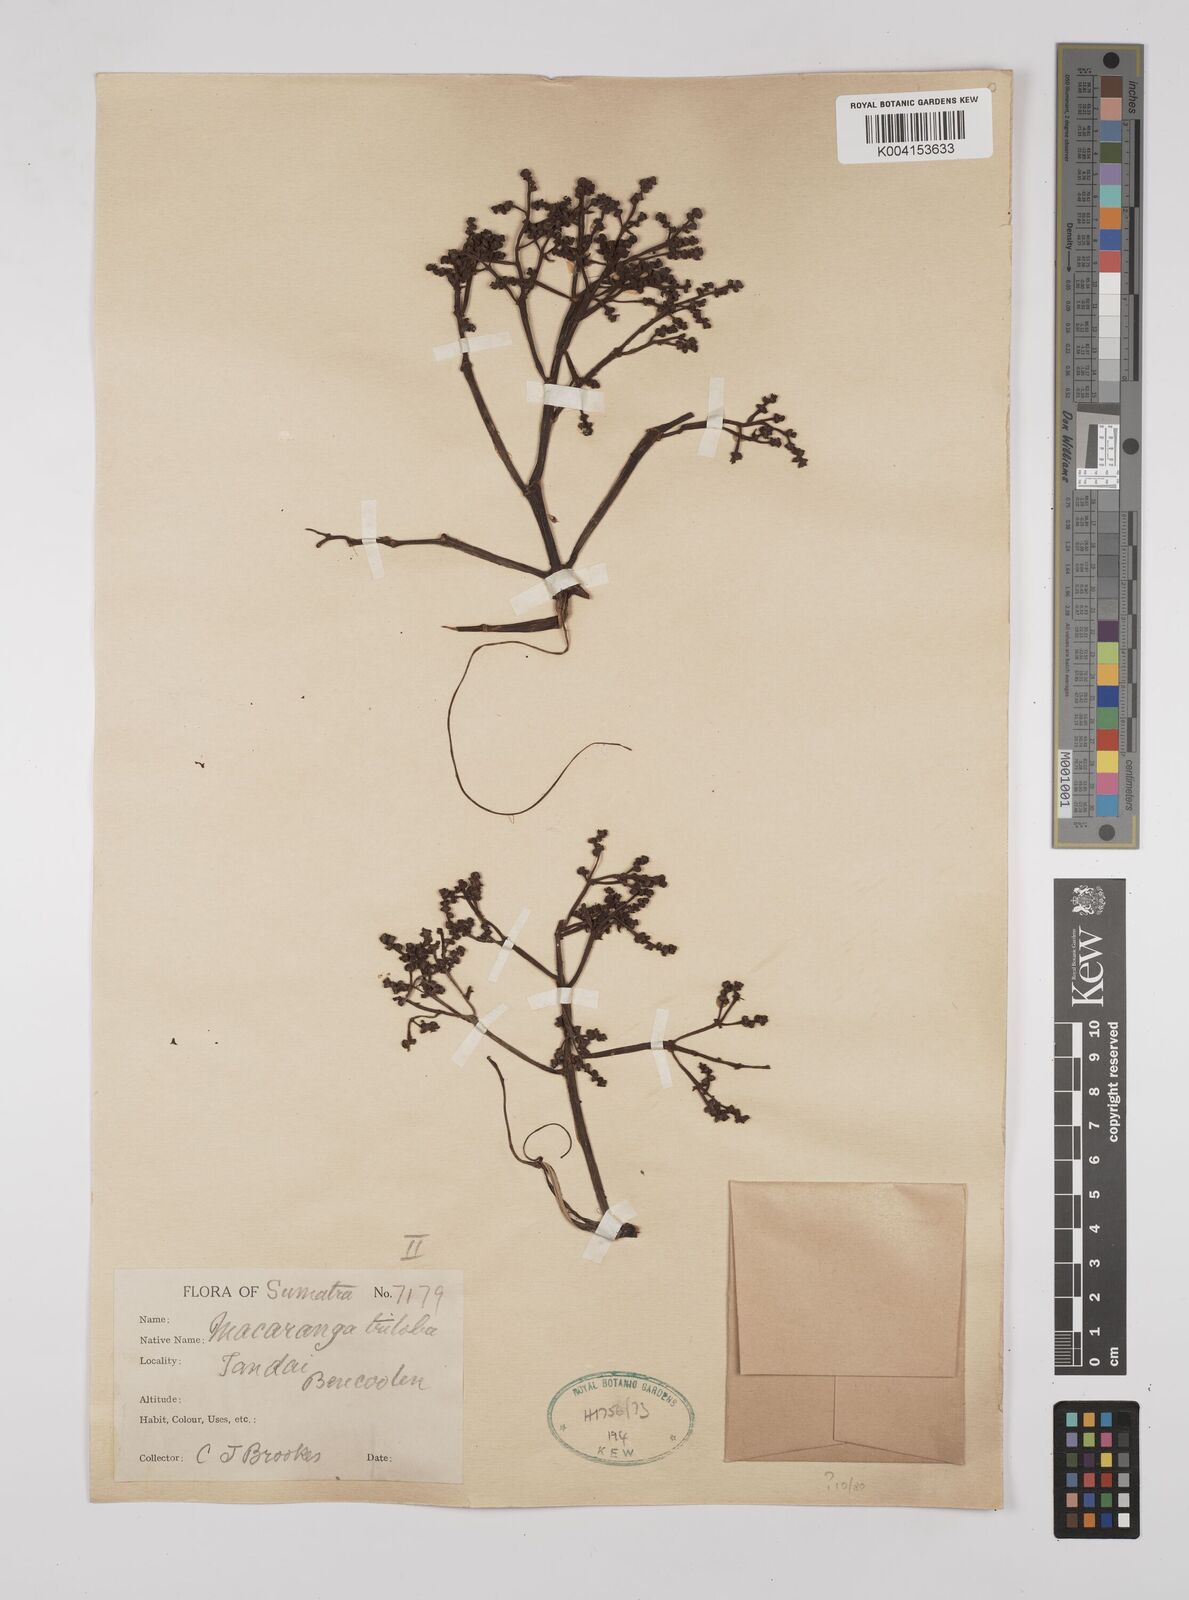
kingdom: Plantae
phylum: Tracheophyta
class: Magnoliopsida
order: Malpighiales
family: Euphorbiaceae
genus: Macaranga
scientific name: Macaranga triloba
